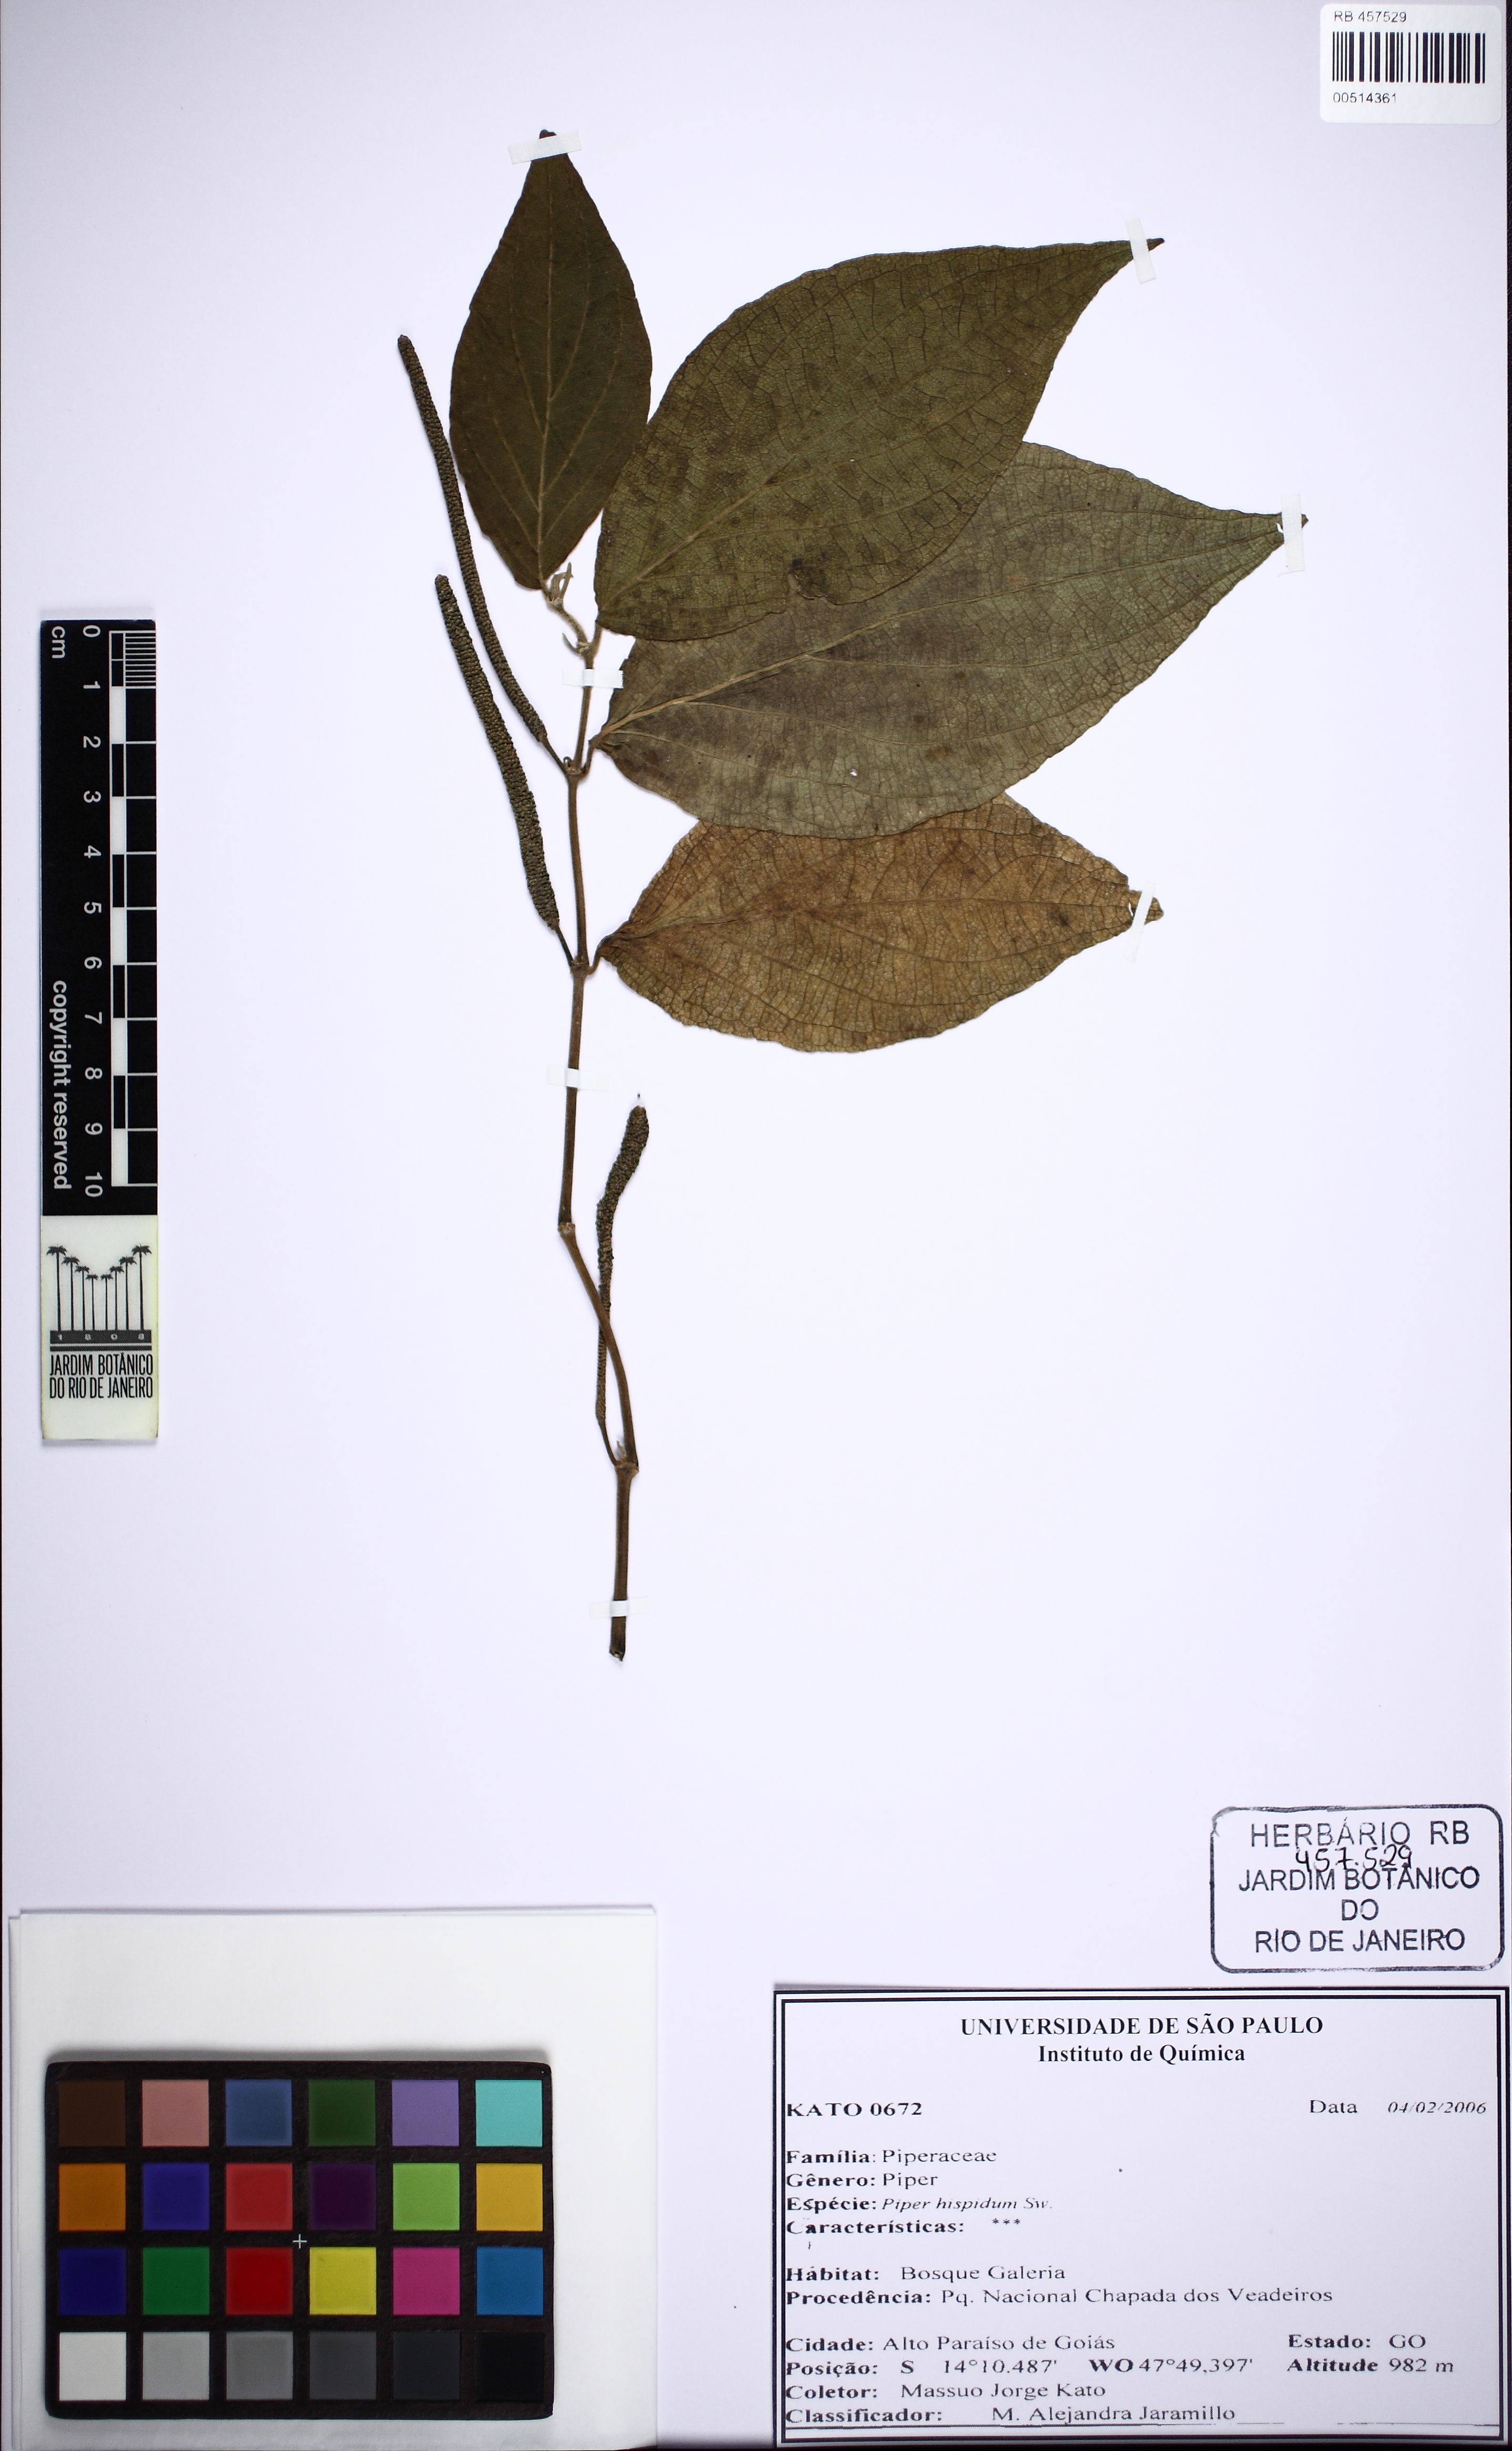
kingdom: Plantae
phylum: Tracheophyta
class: Magnoliopsida
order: Piperales
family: Piperaceae
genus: Piper
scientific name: Piper hispidum
